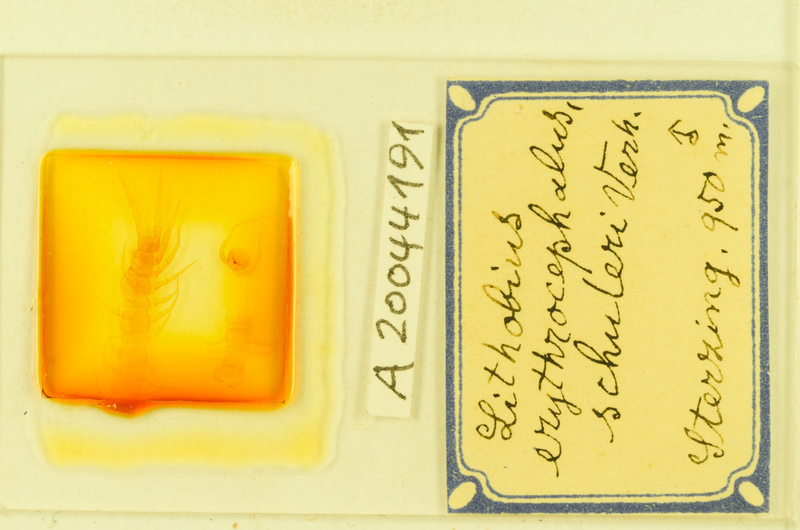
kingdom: Animalia
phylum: Arthropoda
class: Chilopoda
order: Lithobiomorpha
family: Lithobiidae
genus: Lithobius
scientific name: Lithobius erythrocephalus
